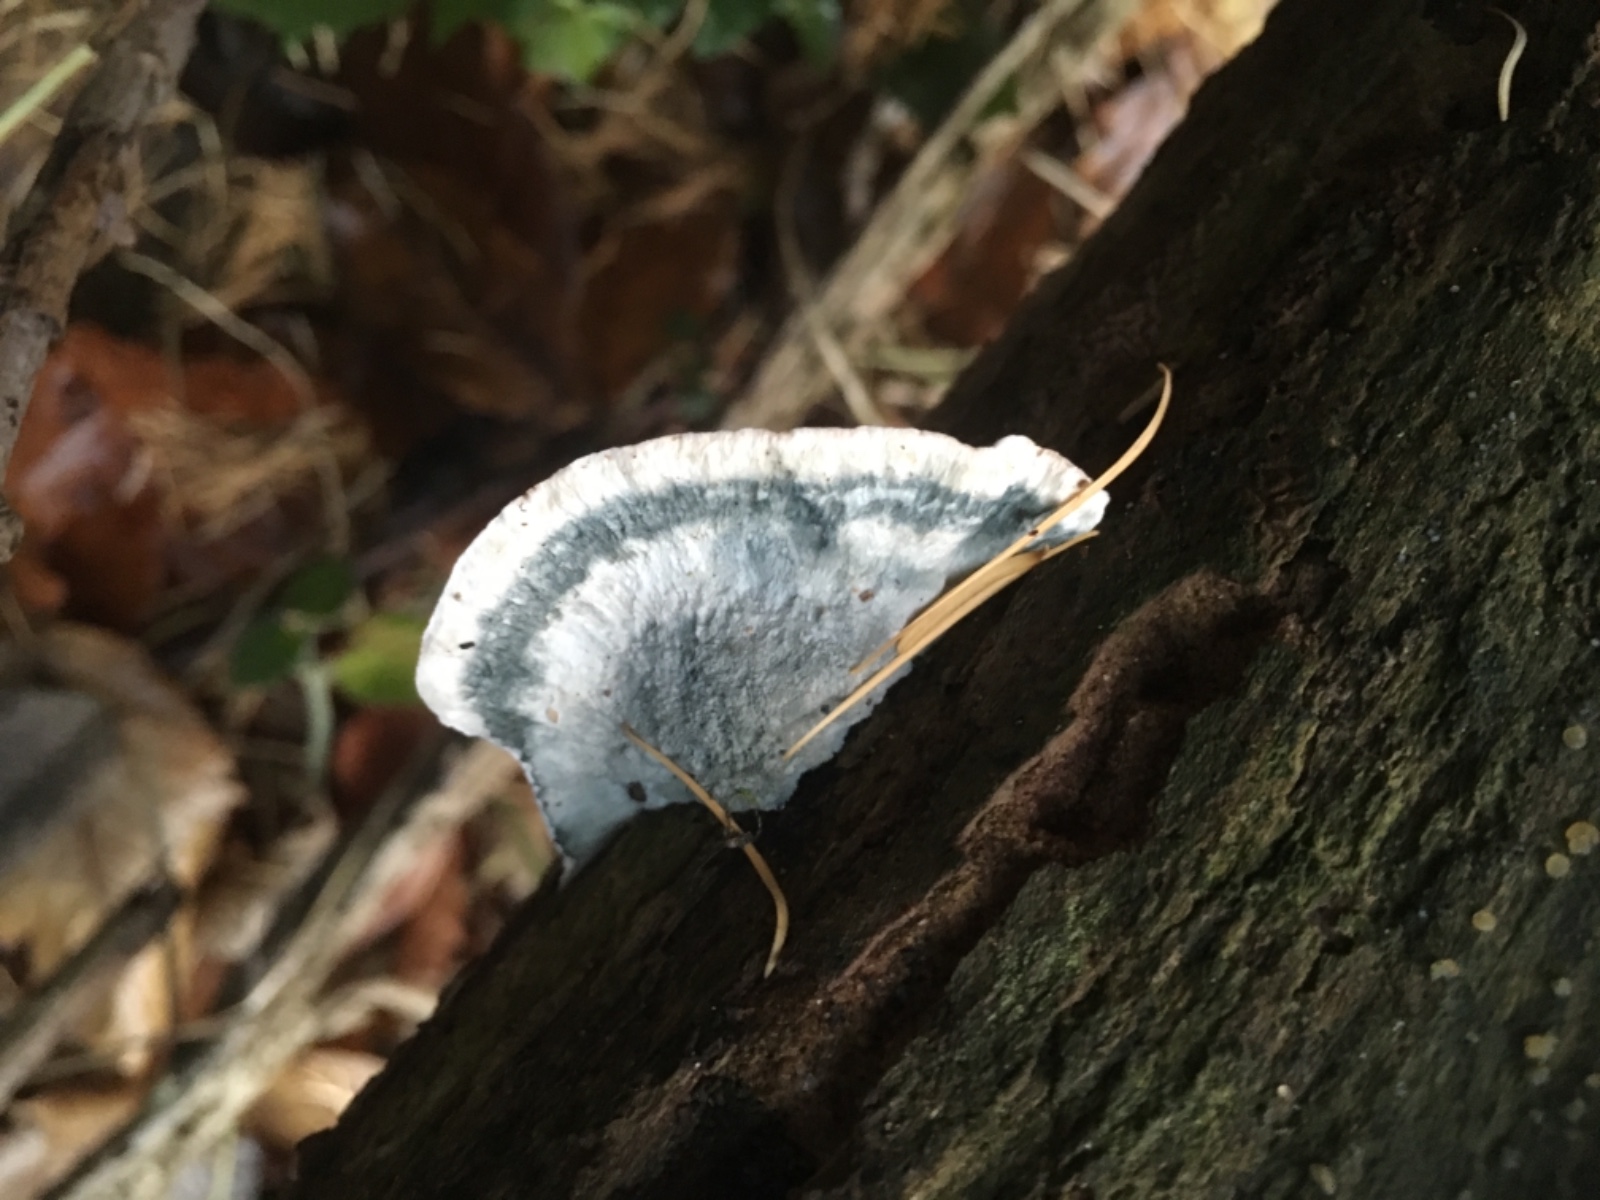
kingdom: Fungi
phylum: Basidiomycota
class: Agaricomycetes
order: Polyporales
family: Dacryobolaceae
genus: Postia
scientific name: Postia
